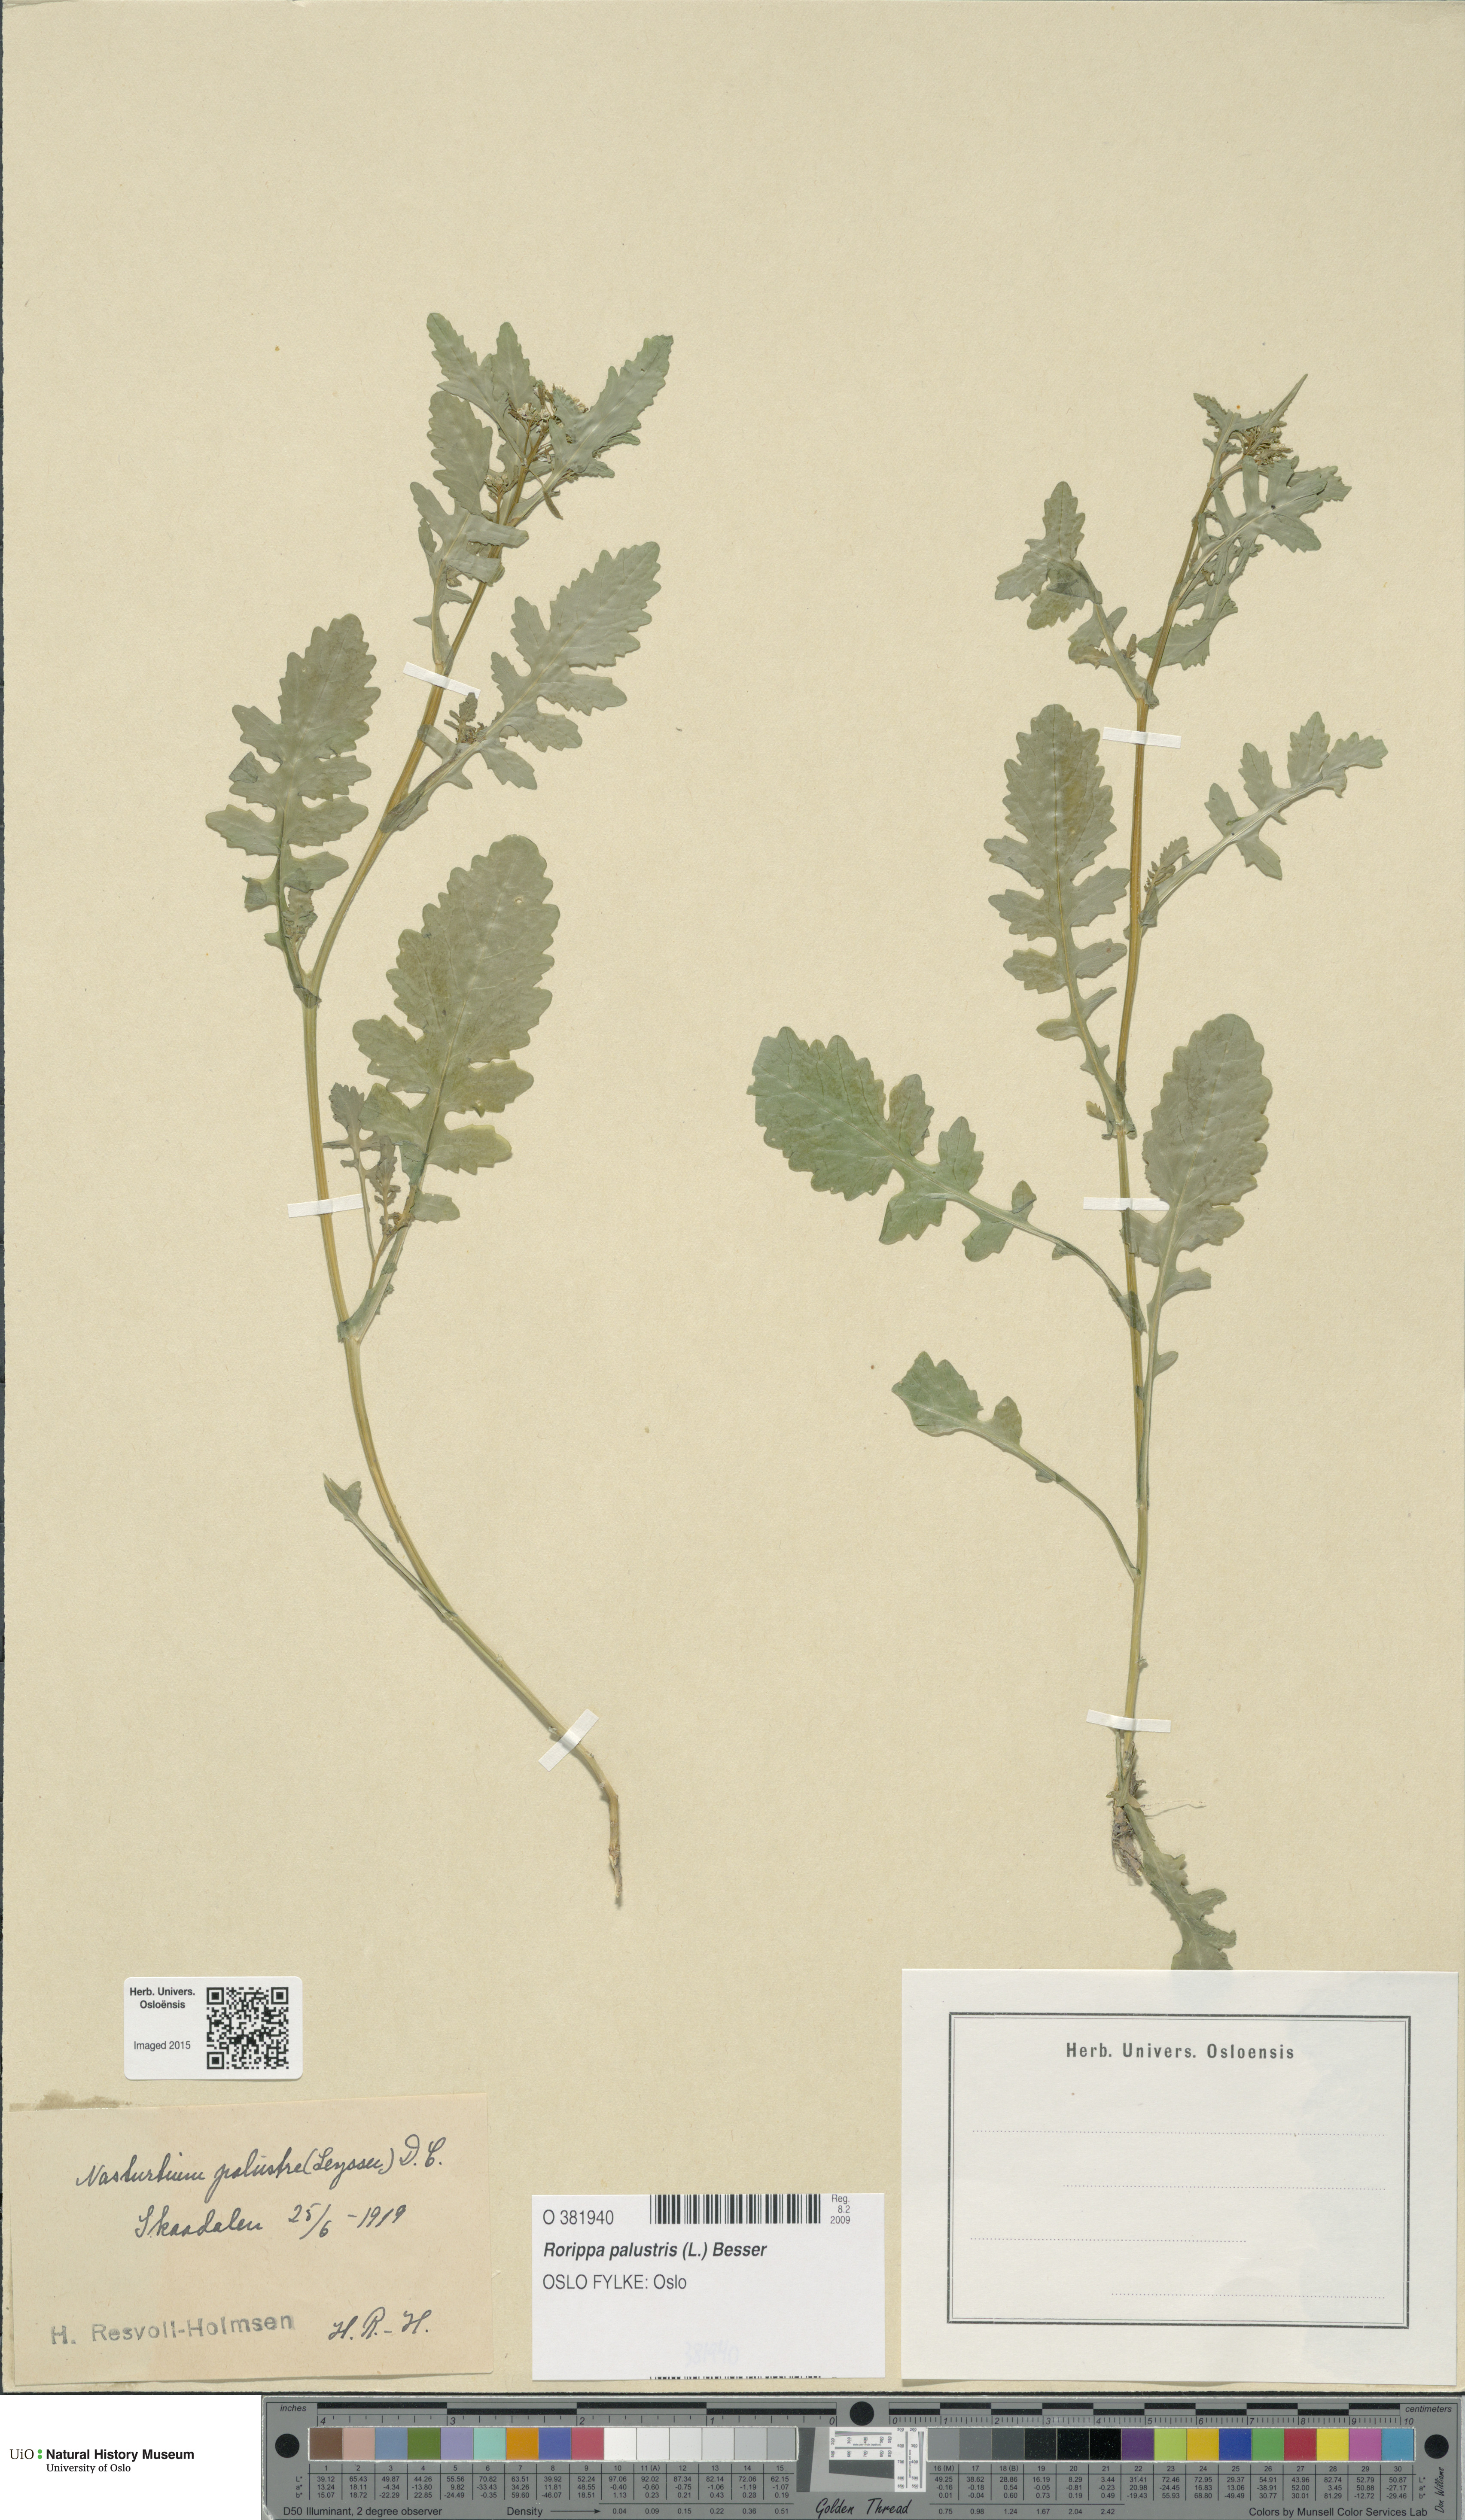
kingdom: Plantae
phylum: Tracheophyta
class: Magnoliopsida
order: Brassicales
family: Brassicaceae
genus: Rorippa
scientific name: Rorippa palustris
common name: Marsh yellow-cress
